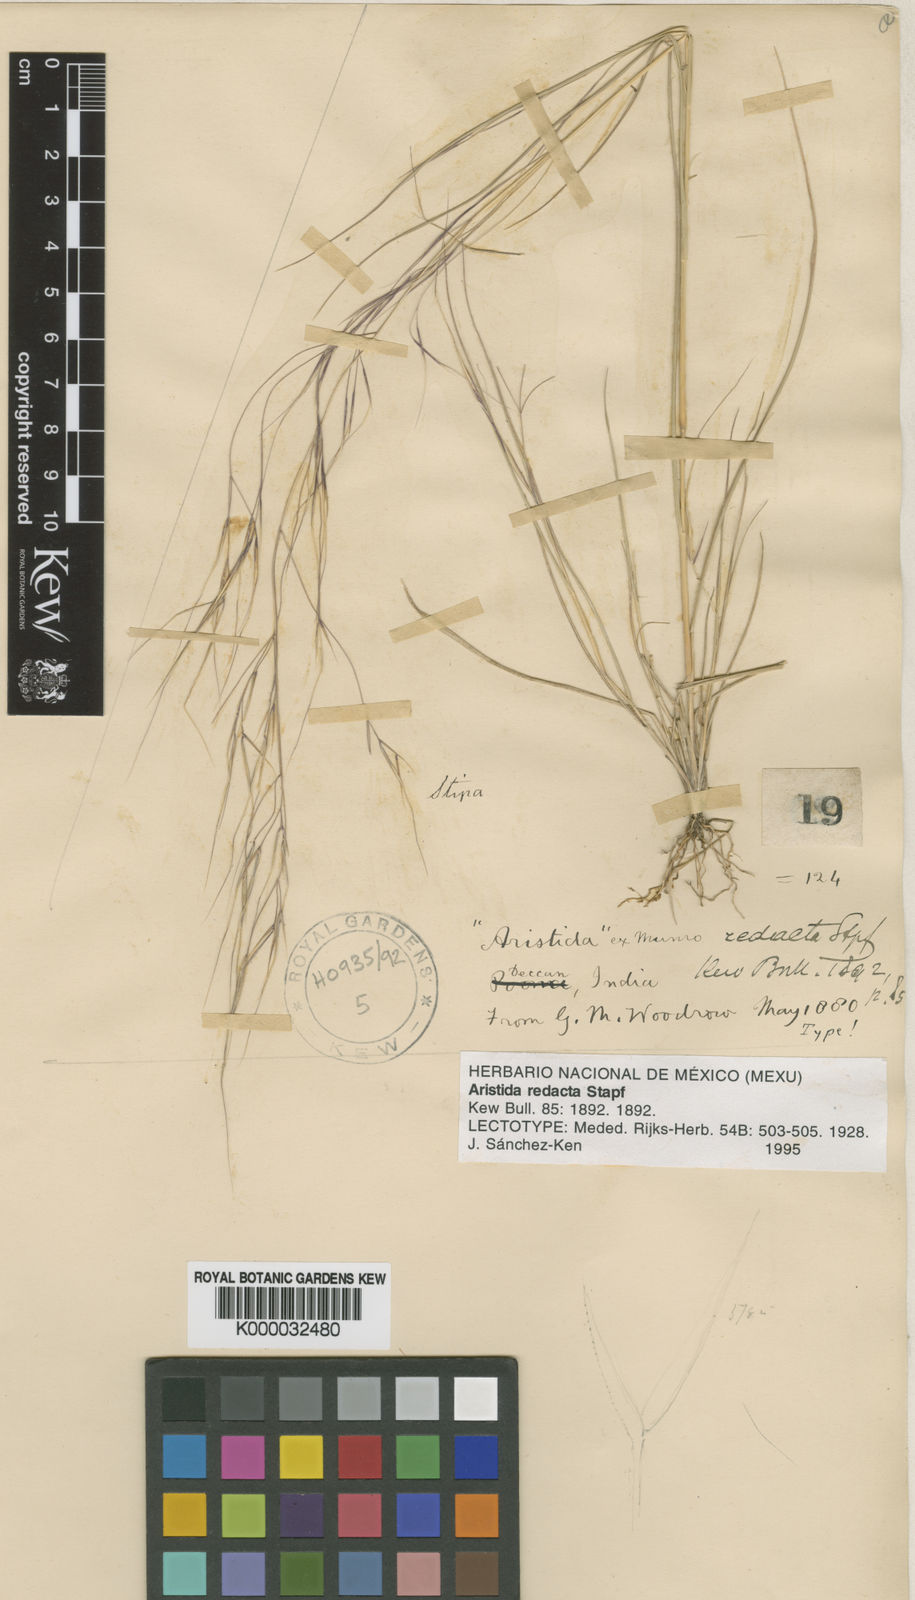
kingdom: Plantae
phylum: Tracheophyta
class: Liliopsida
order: Poales
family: Poaceae
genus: Aristida
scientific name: Aristida redacta
